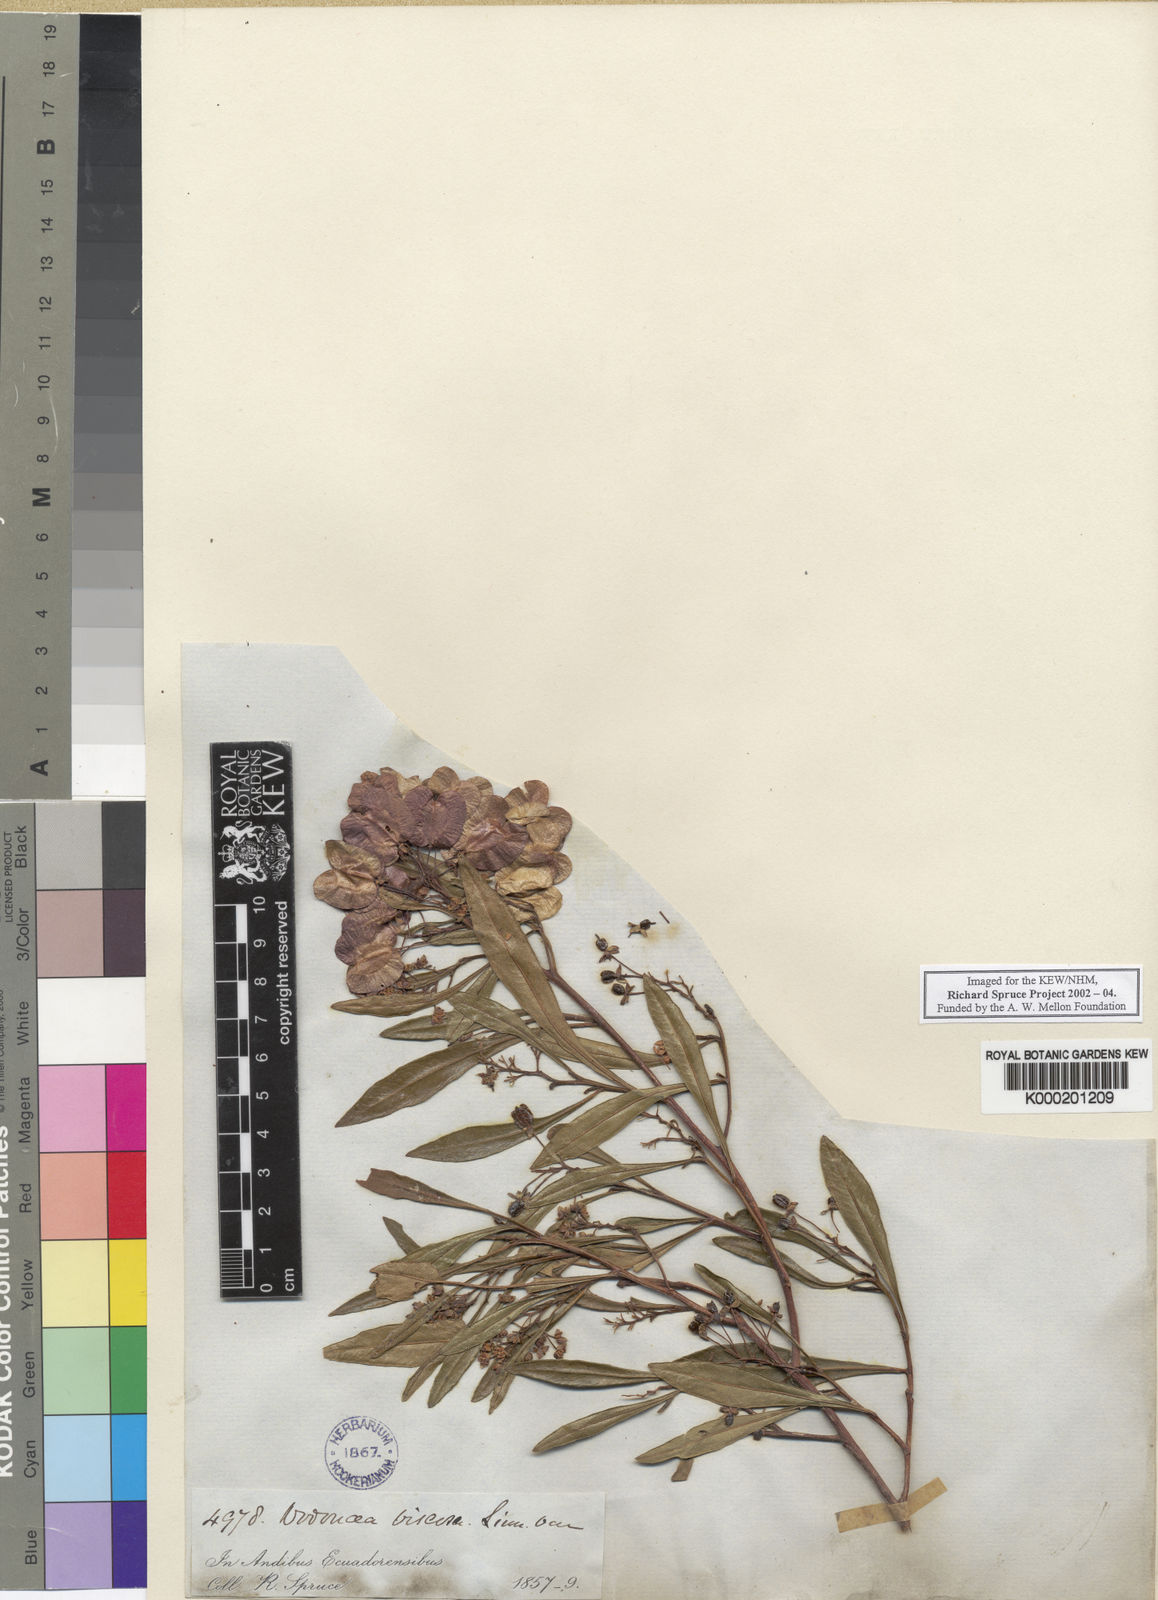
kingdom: Plantae
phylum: Tracheophyta
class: Magnoliopsida
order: Sapindales
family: Sapindaceae
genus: Dodonaea
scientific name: Dodonaea viscosa
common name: Hopbush
